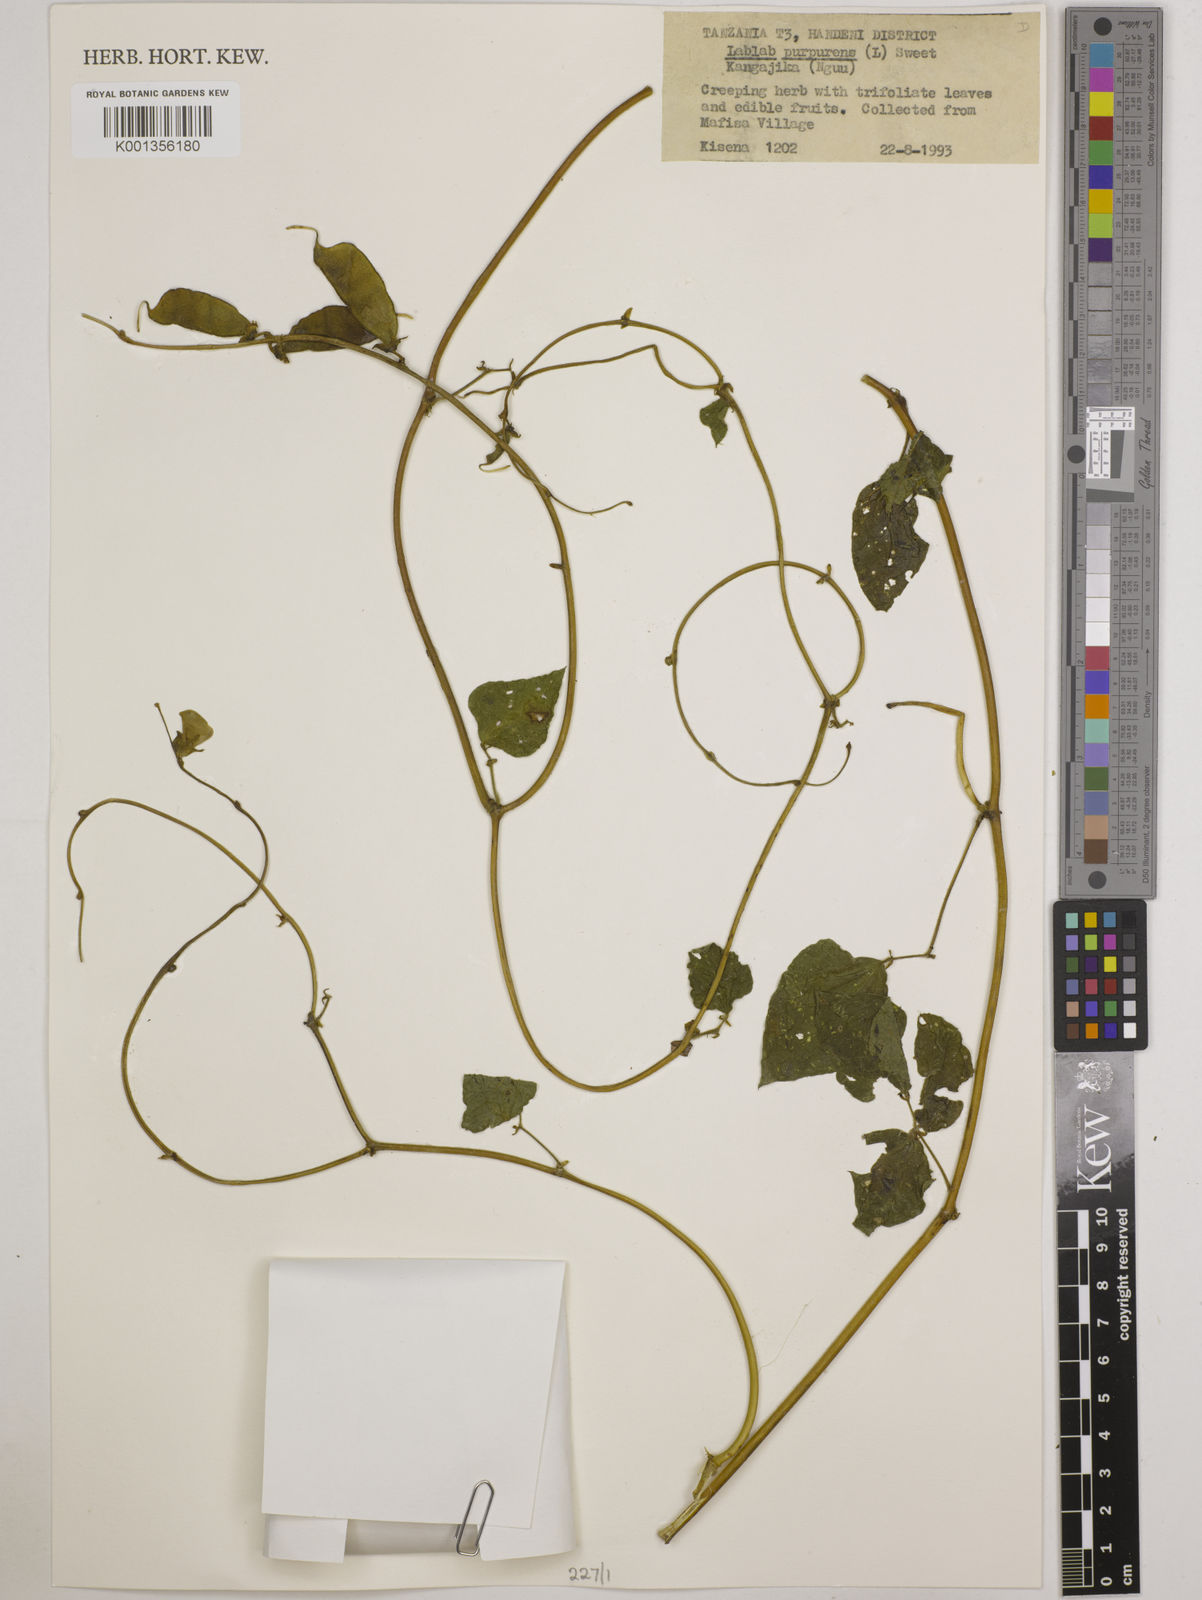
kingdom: Plantae
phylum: Tracheophyta
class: Magnoliopsida
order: Fabales
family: Fabaceae
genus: Lablab
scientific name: Lablab purpureus
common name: Lablab-bean
